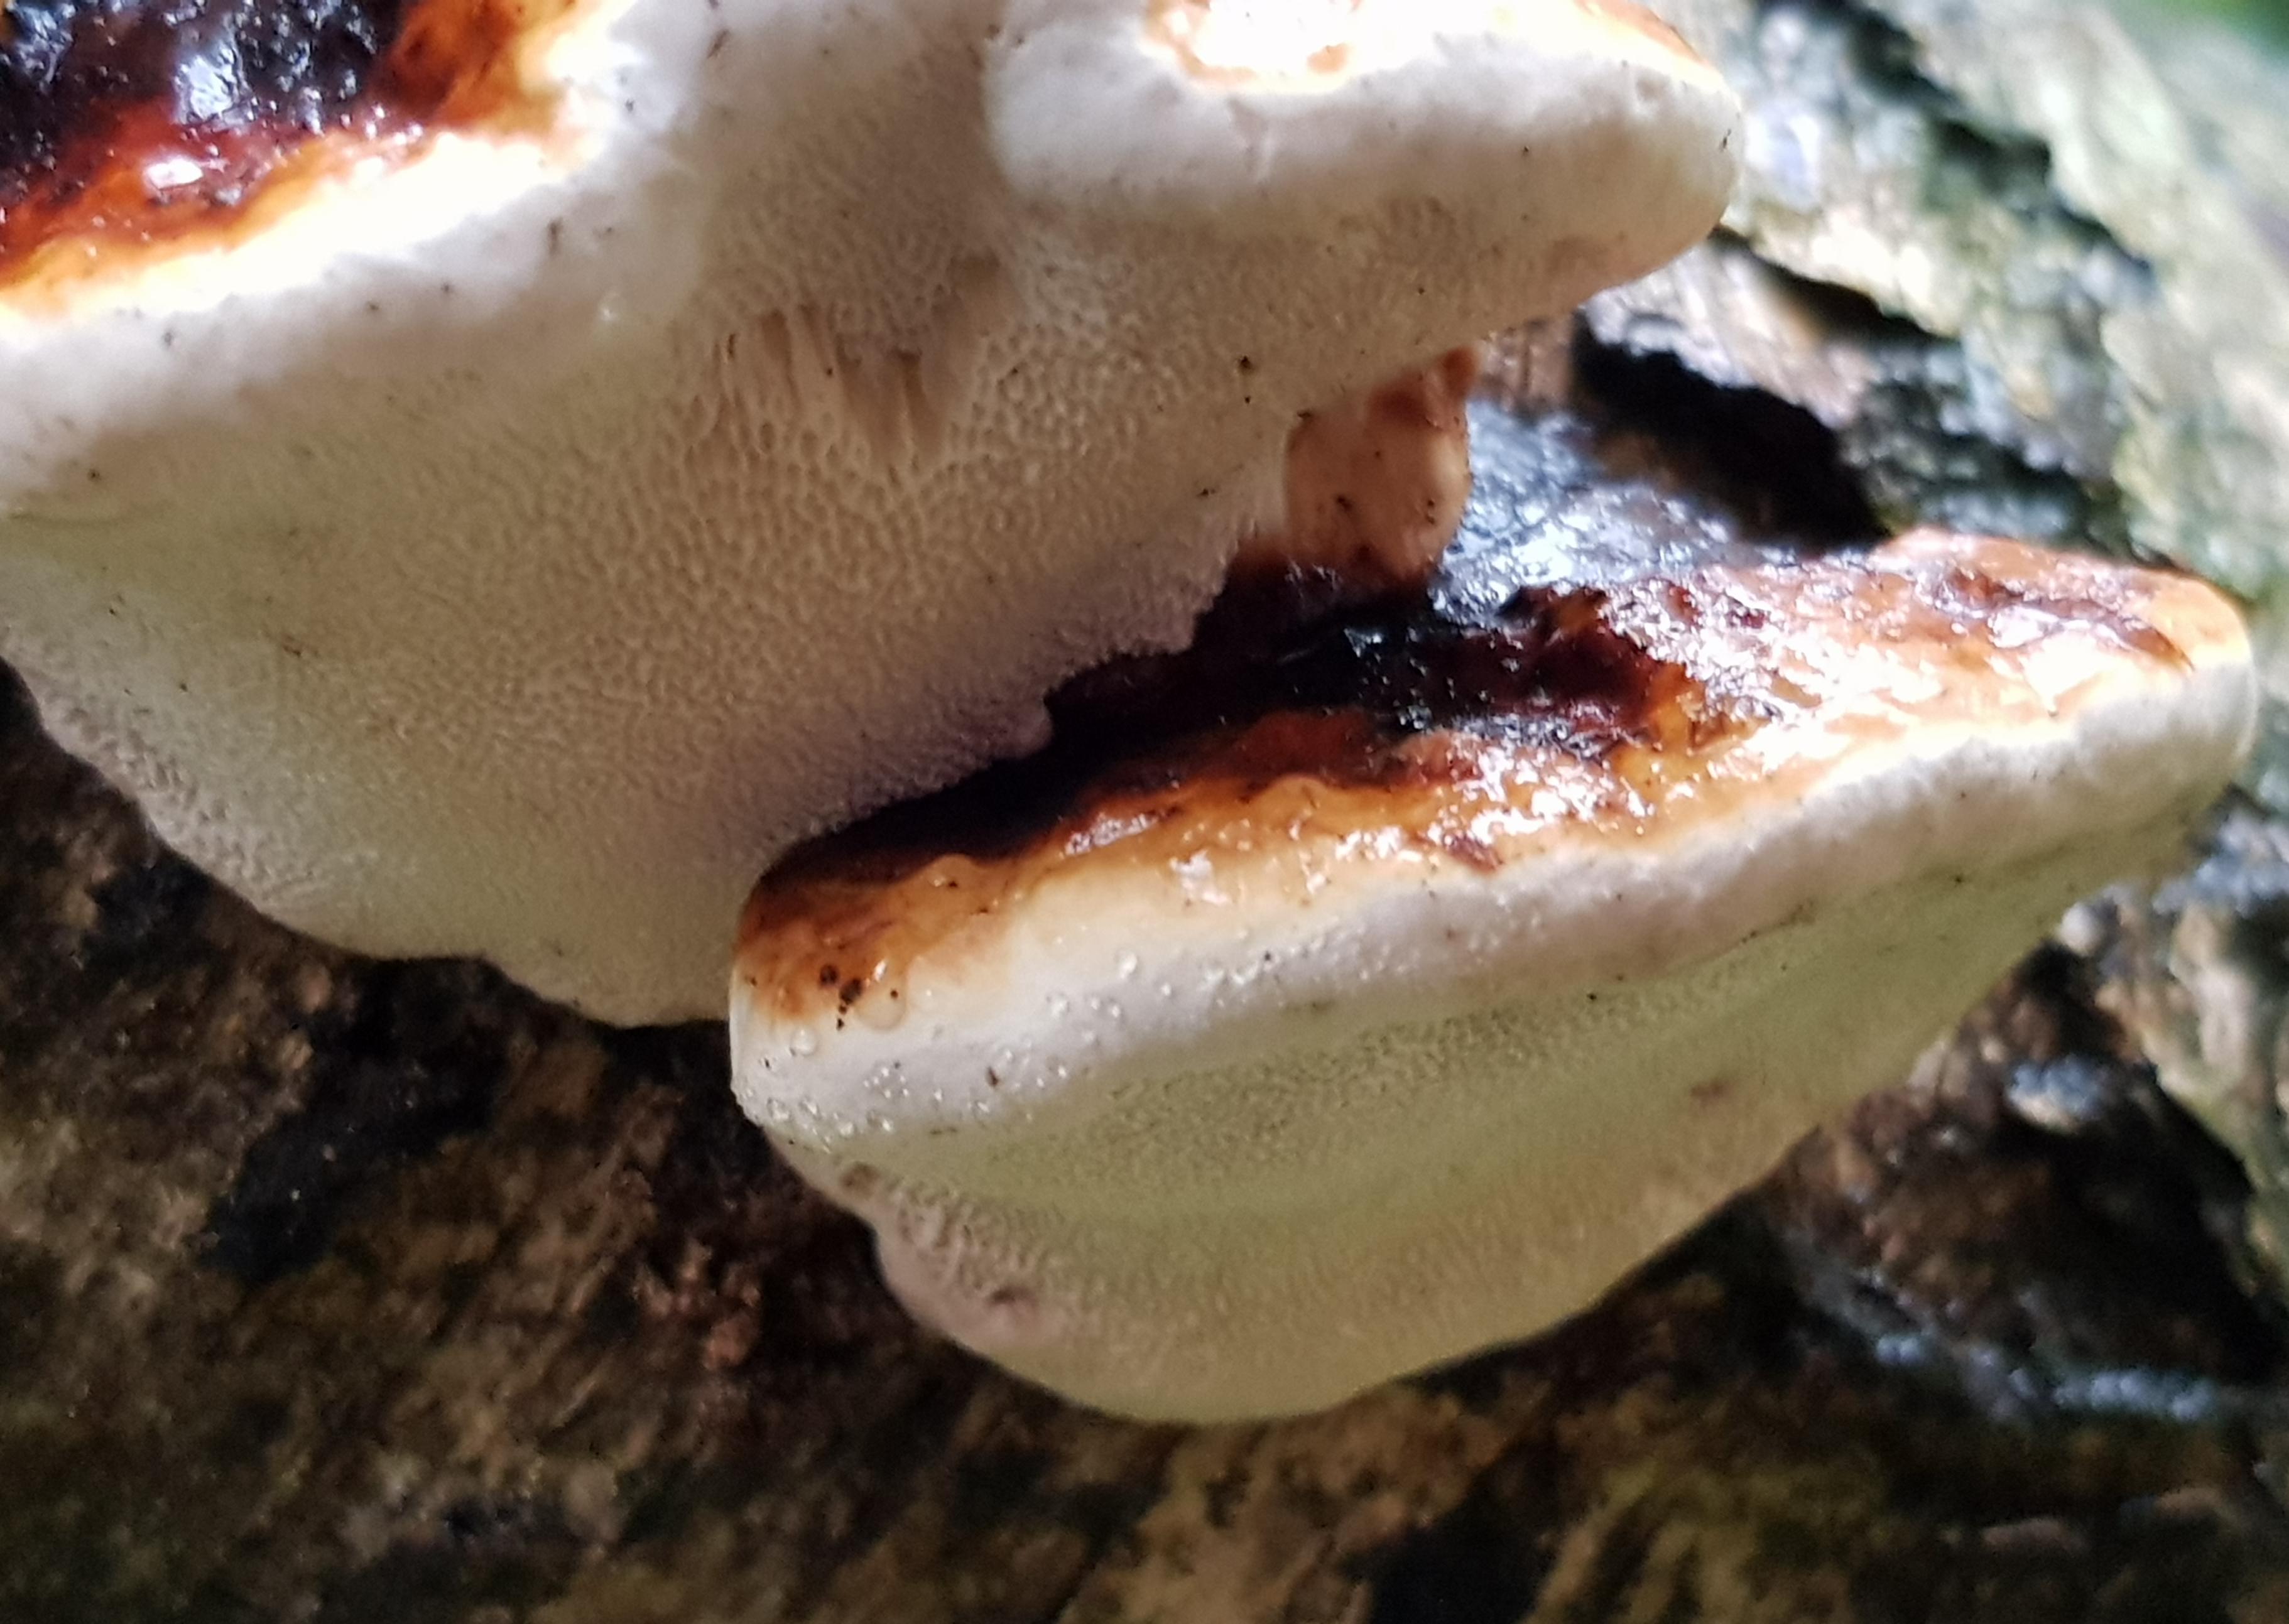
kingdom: Fungi
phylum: Basidiomycota
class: Agaricomycetes
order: Polyporales
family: Fomitopsidaceae
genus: Fomitopsis
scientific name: Fomitopsis pinicola
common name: randbæltet hovporesvamp
